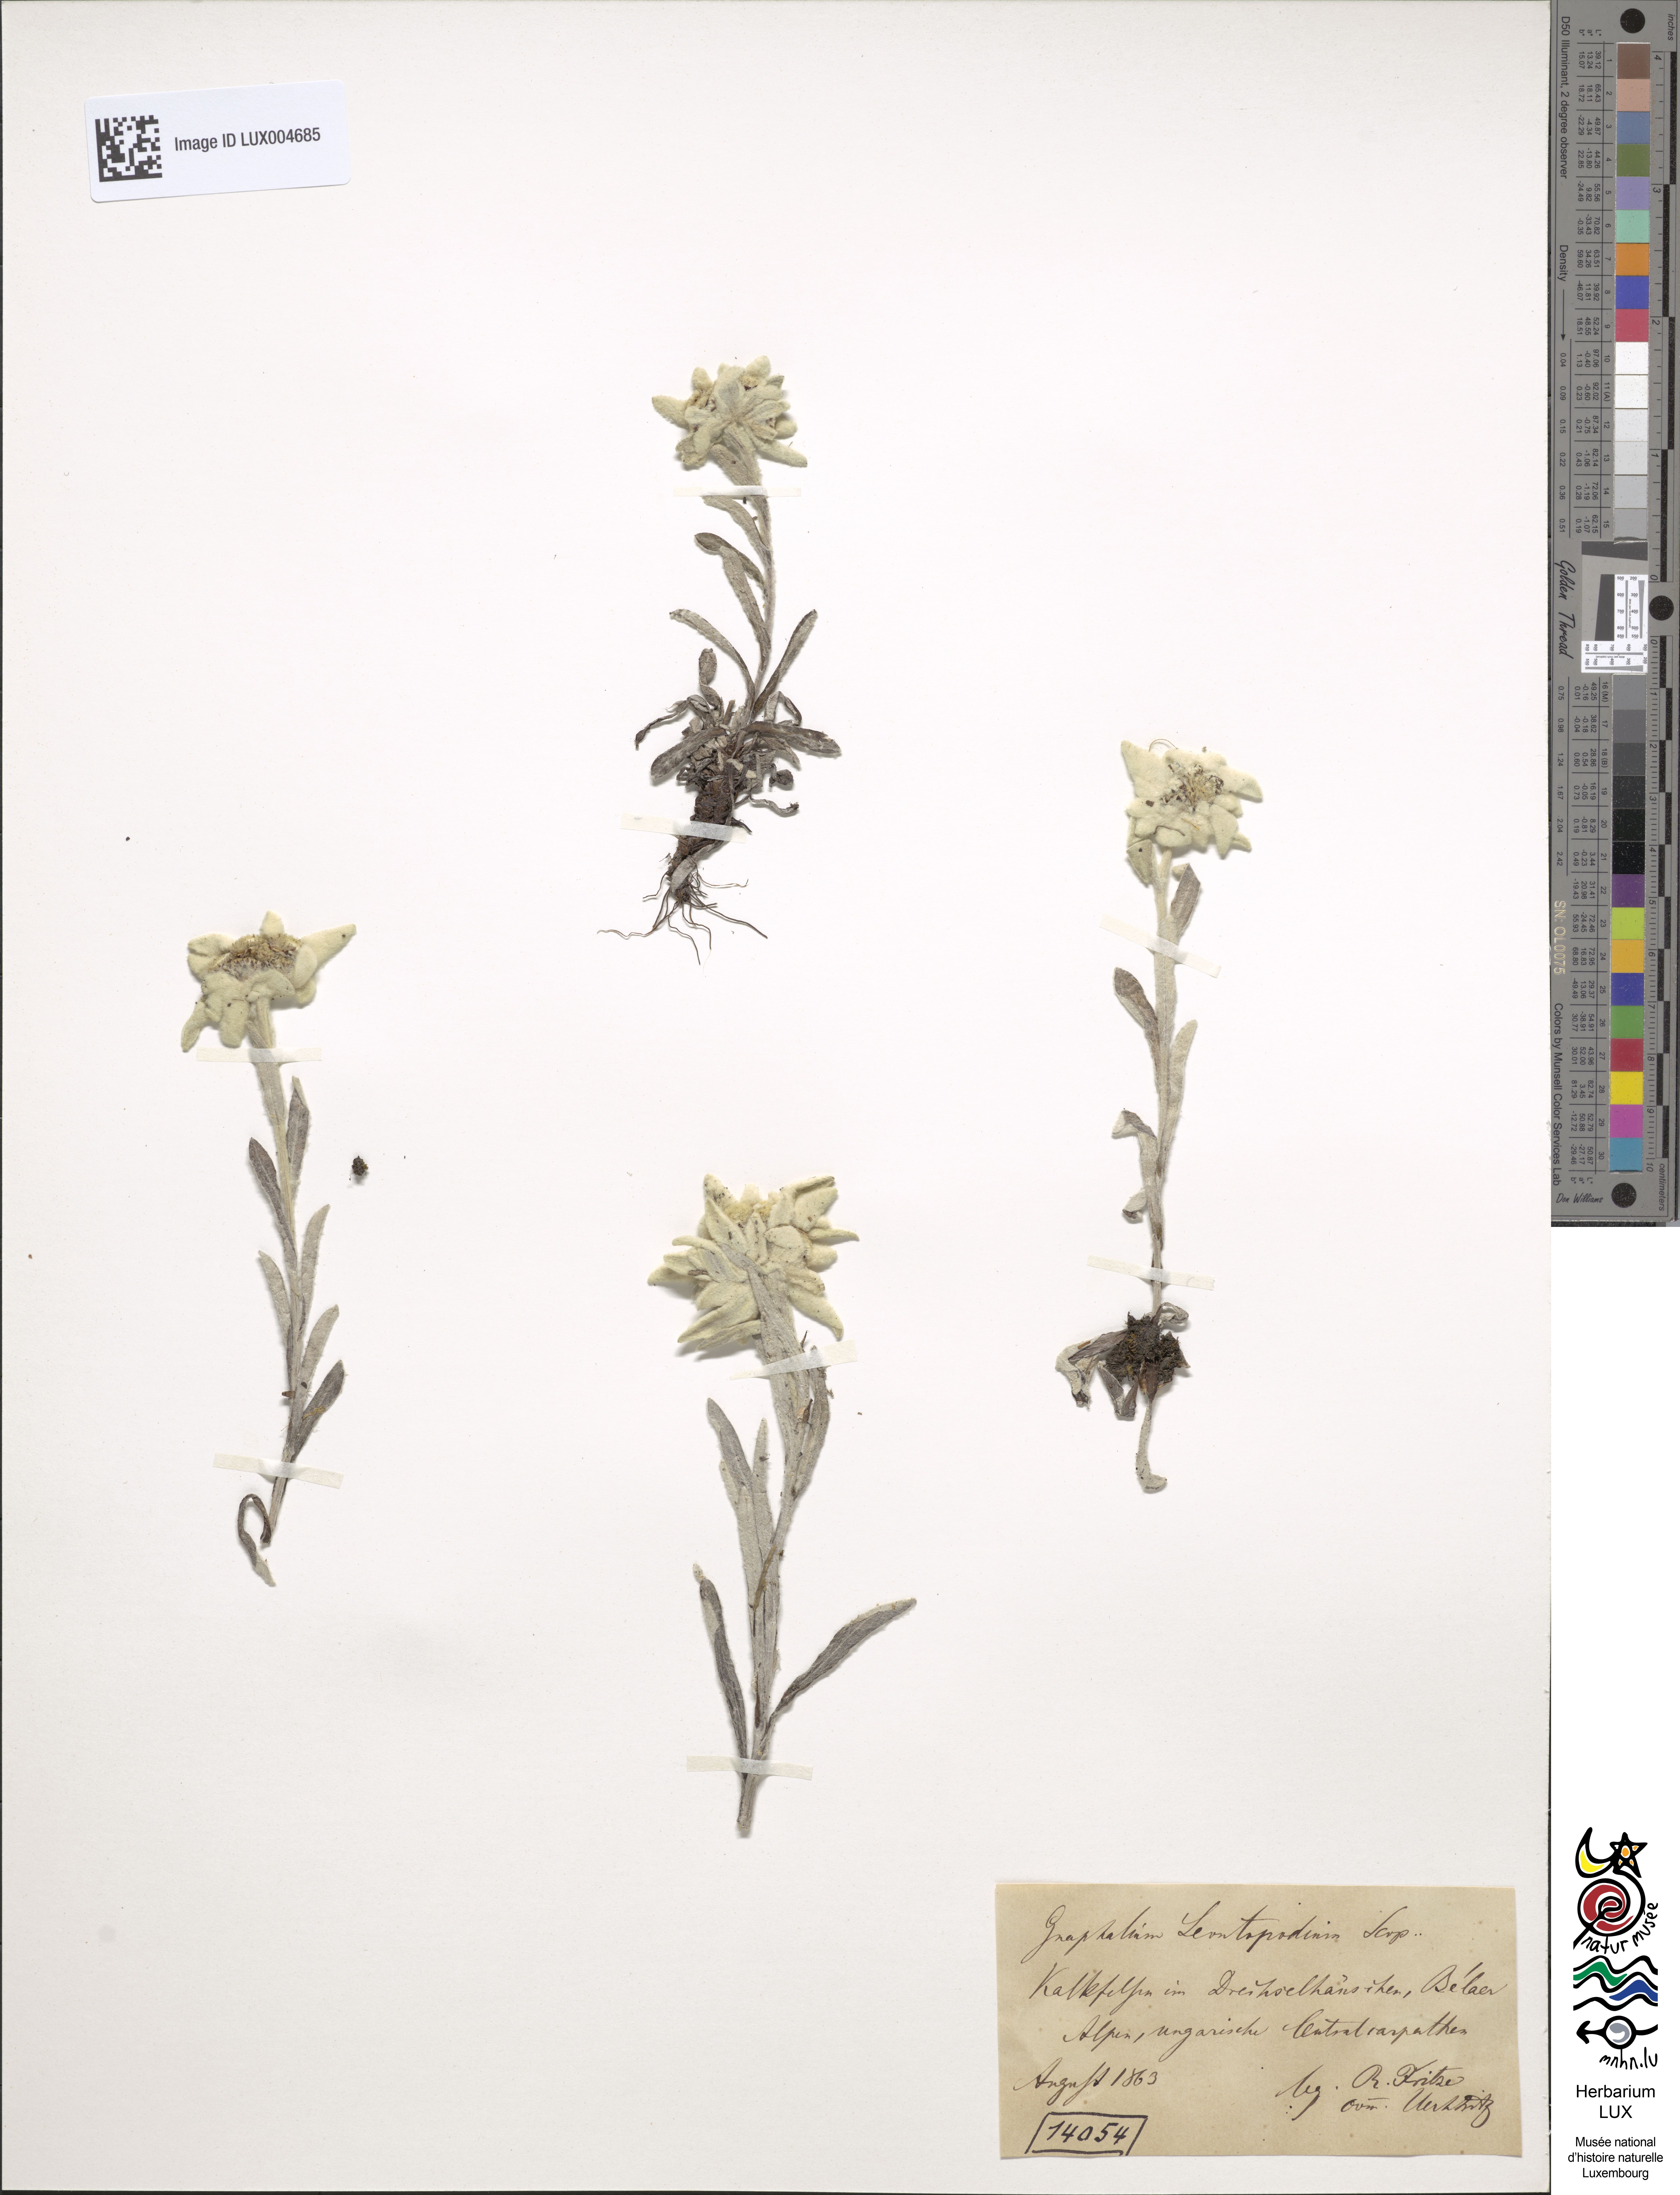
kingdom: Plantae
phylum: Tracheophyta
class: Magnoliopsida
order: Asterales
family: Asteraceae
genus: Leontopodium
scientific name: Leontopodium nivale
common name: Edelweiss
